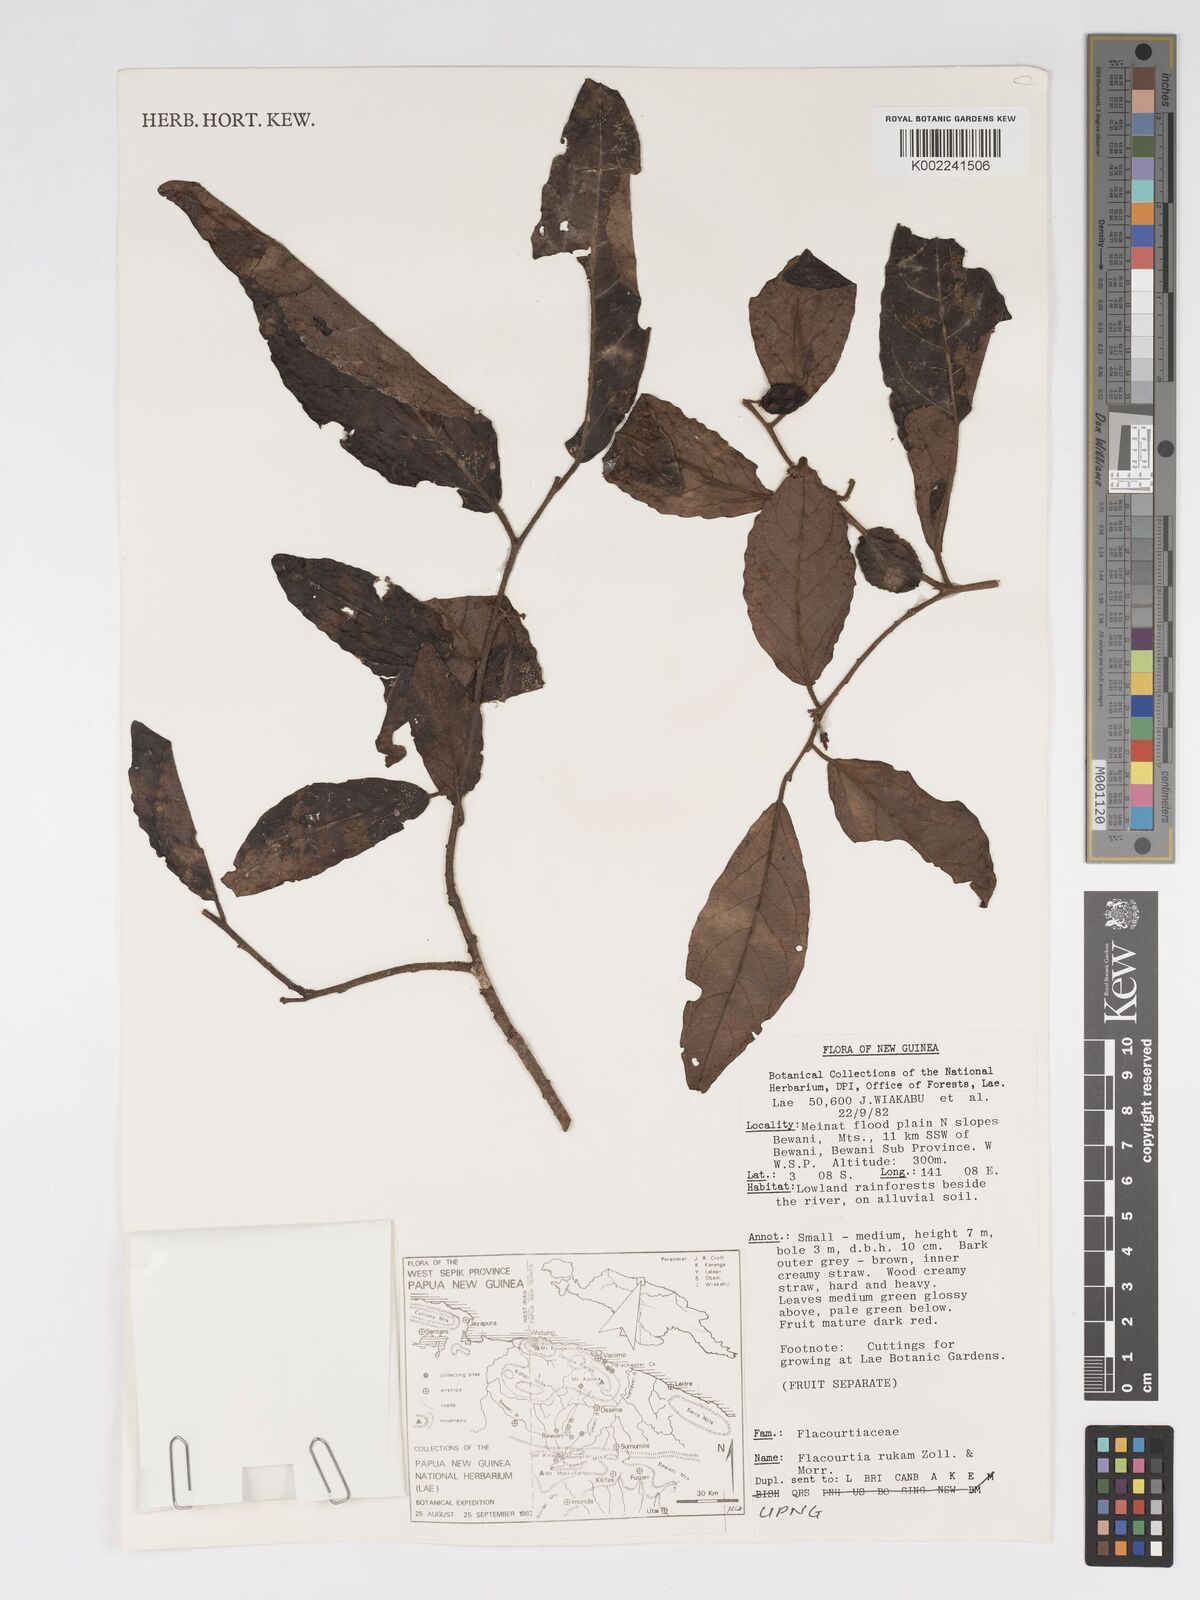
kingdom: Plantae
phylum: Tracheophyta
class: Magnoliopsida
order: Malpighiales
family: Salicaceae
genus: Flacourtia
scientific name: Flacourtia rukam
